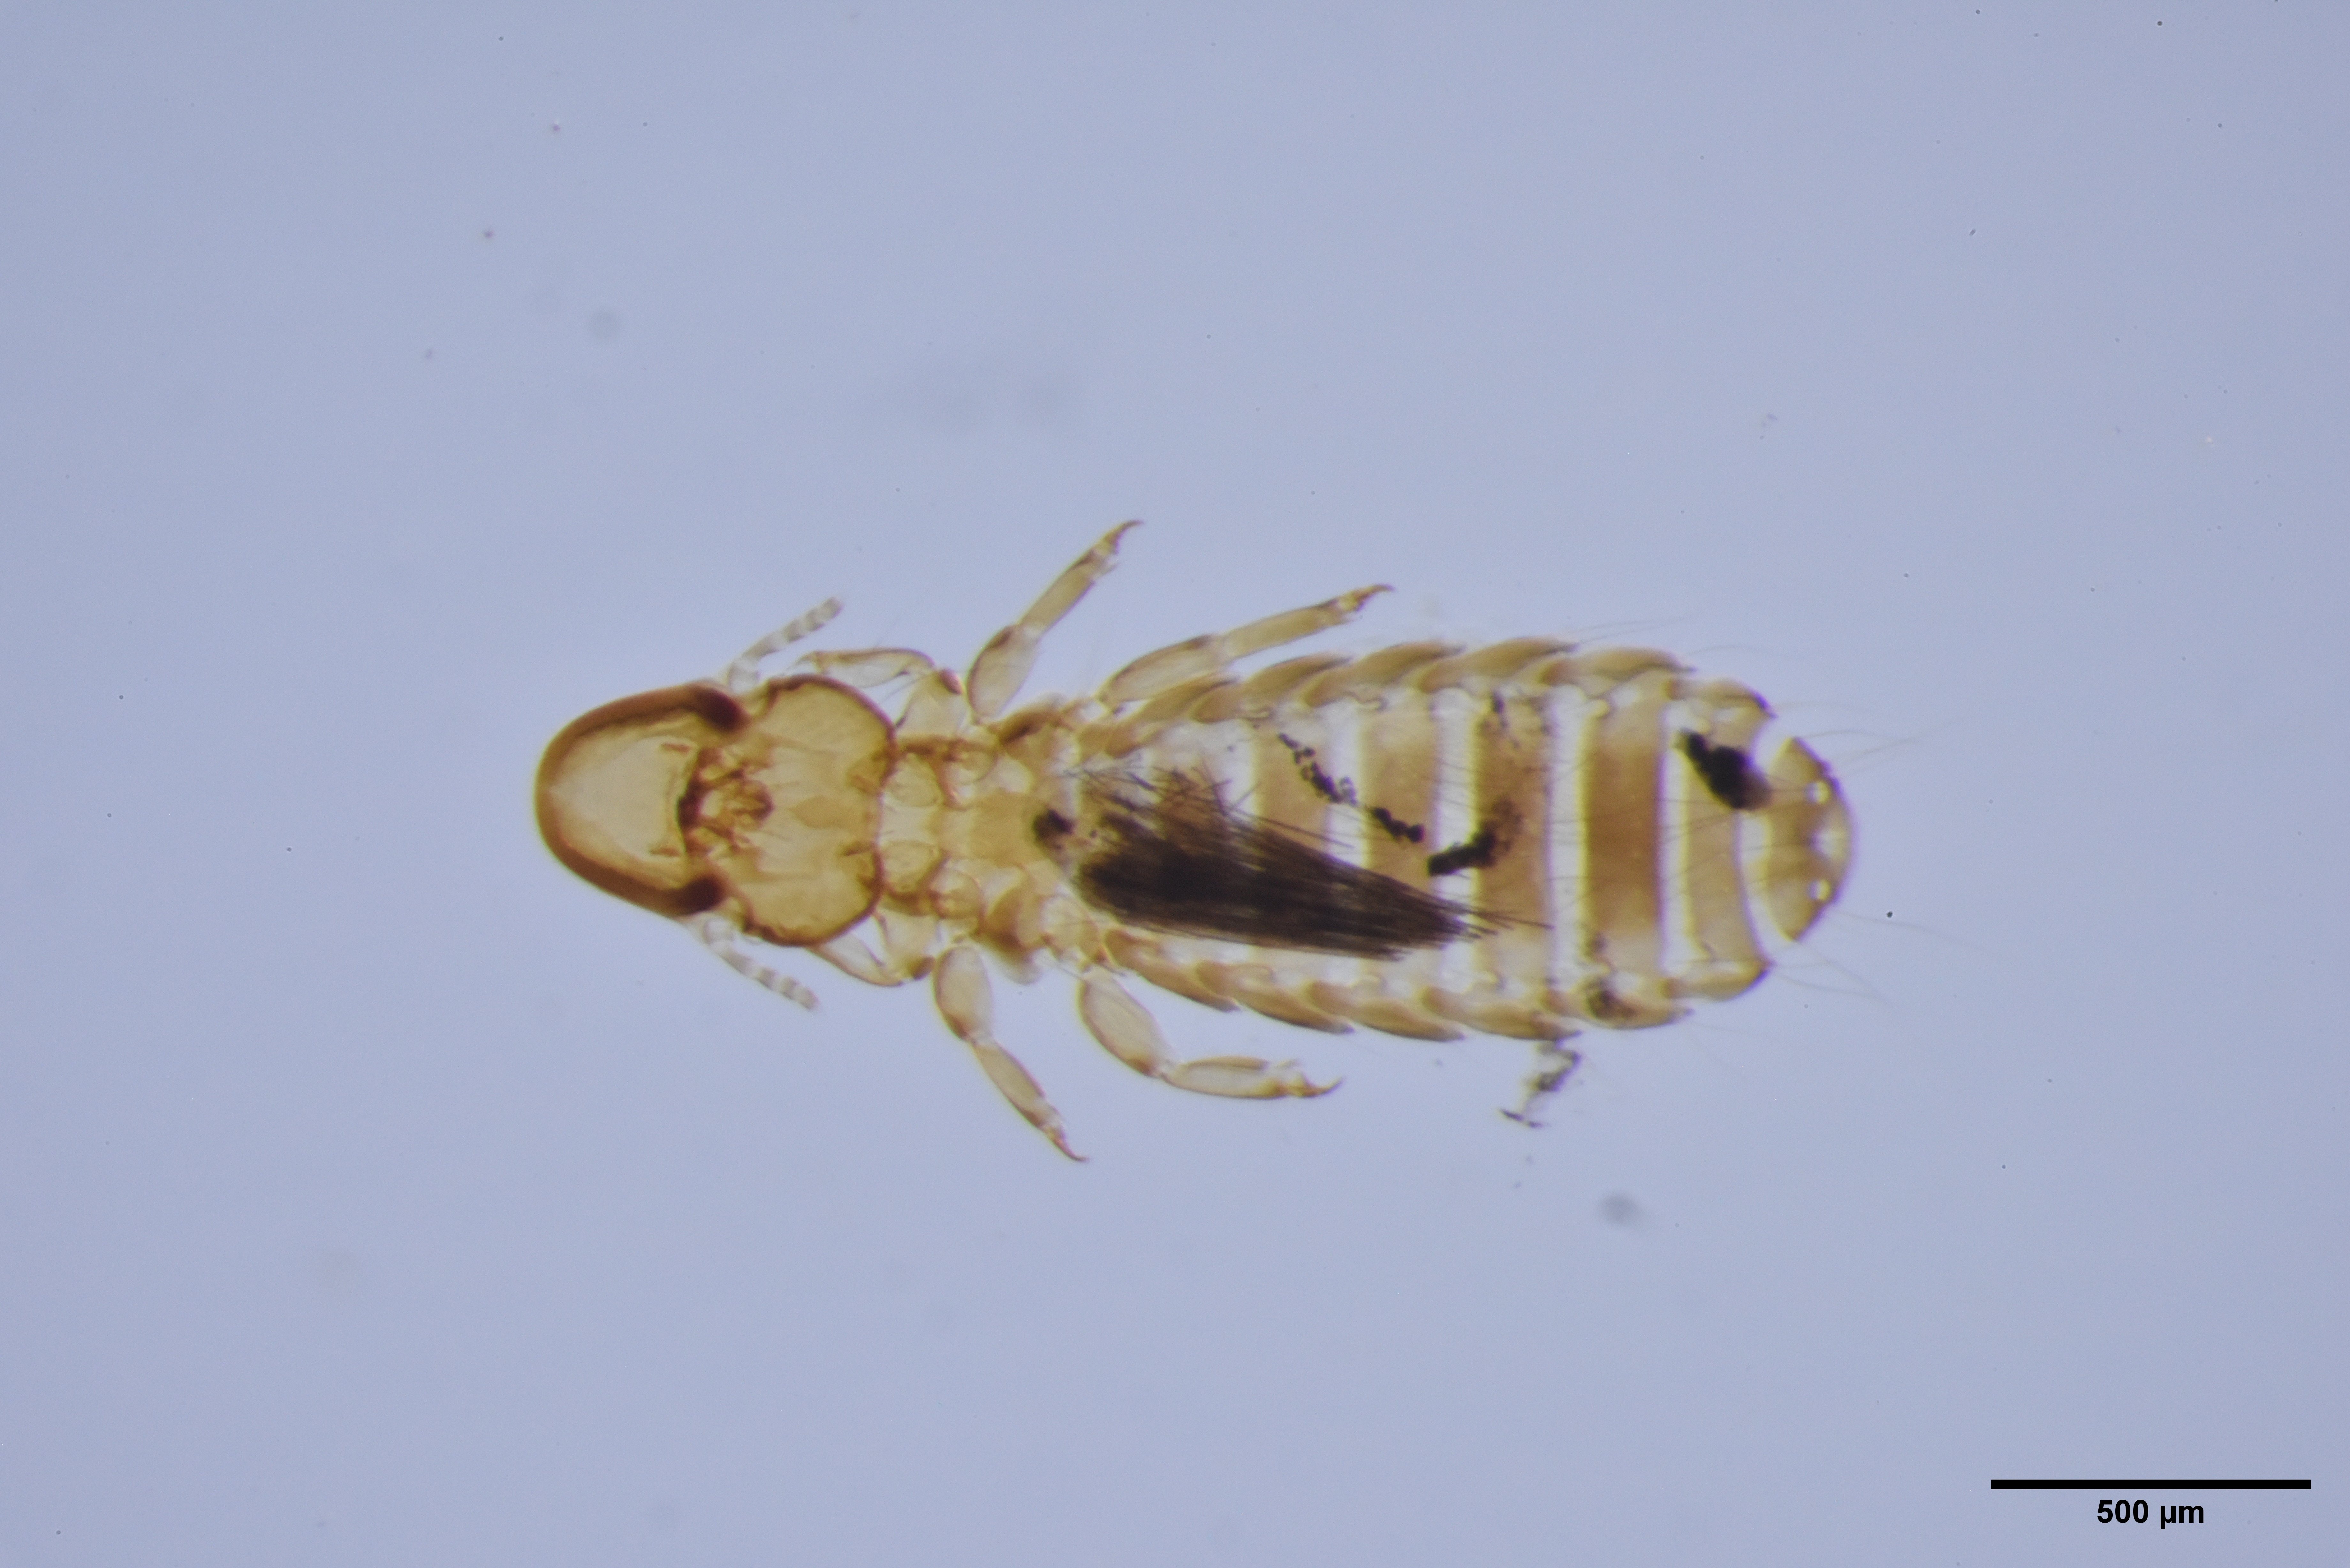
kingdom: Animalia
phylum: Arthropoda
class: Insecta
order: Psocodea
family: Philopteridae
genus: Degeeriella
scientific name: Degeeriella vagans
